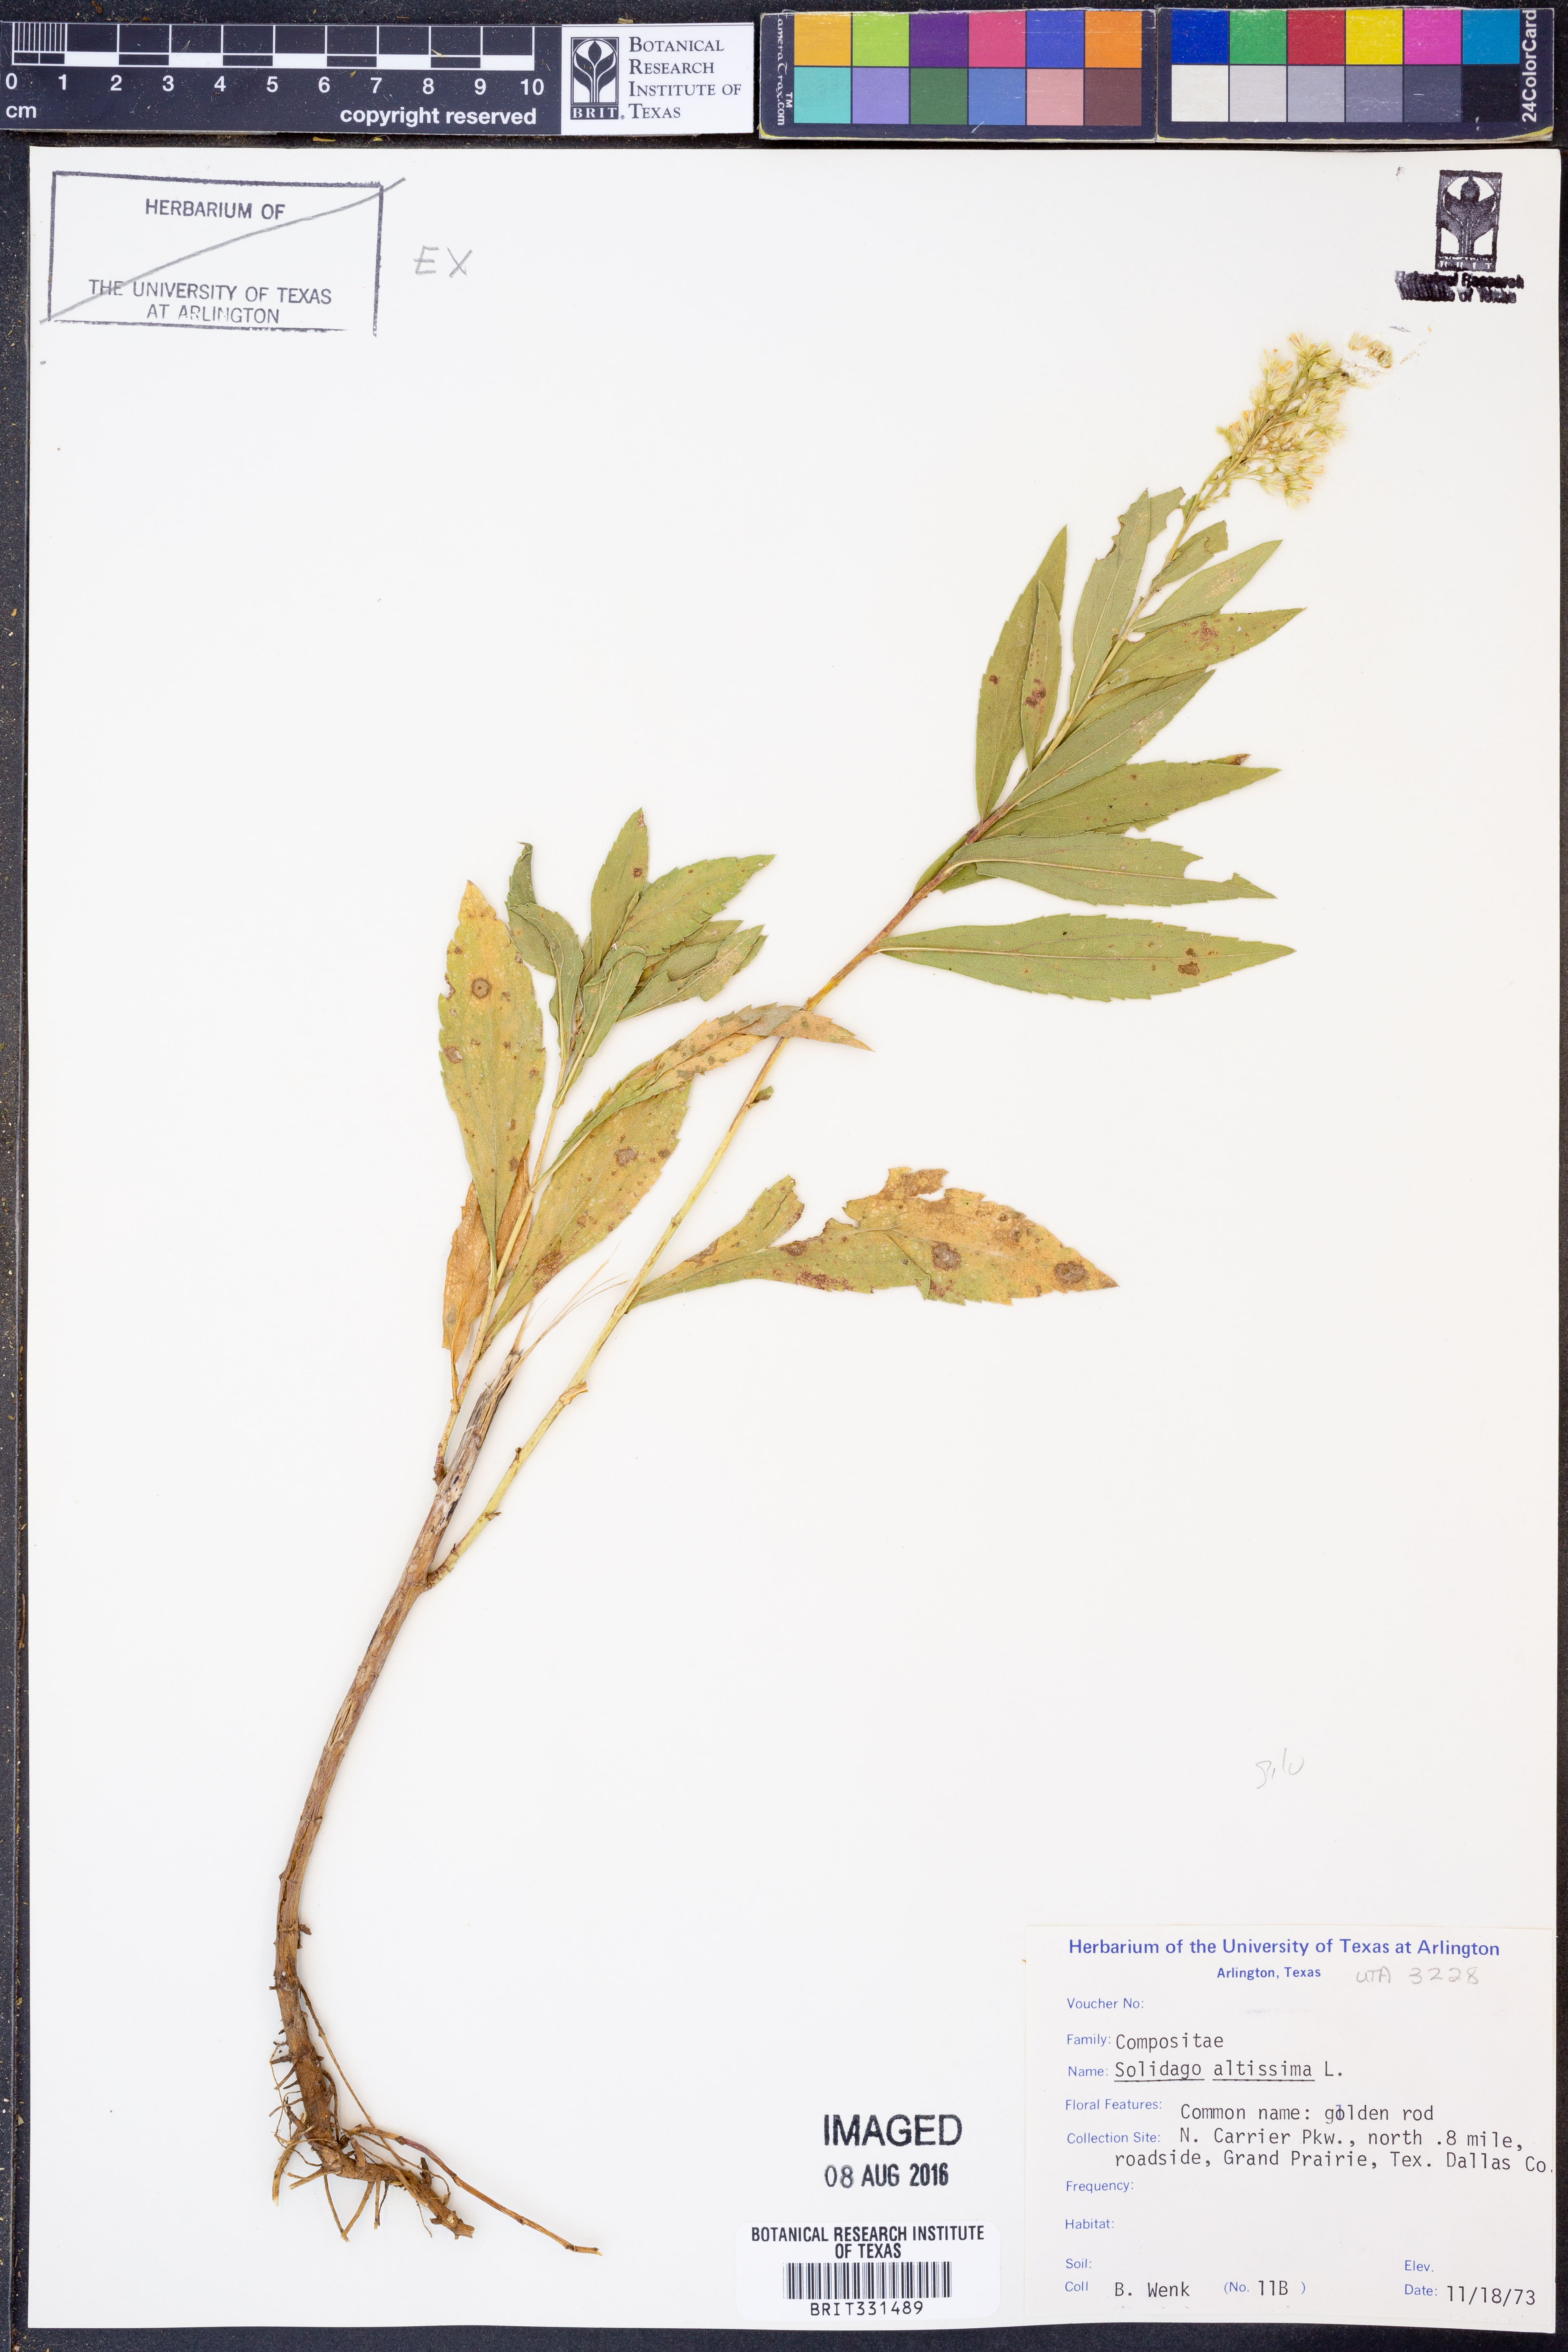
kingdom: Plantae
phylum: Tracheophyta
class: Magnoliopsida
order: Asterales
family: Asteraceae
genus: Solidago
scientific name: Solidago altissima
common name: Late goldenrod
